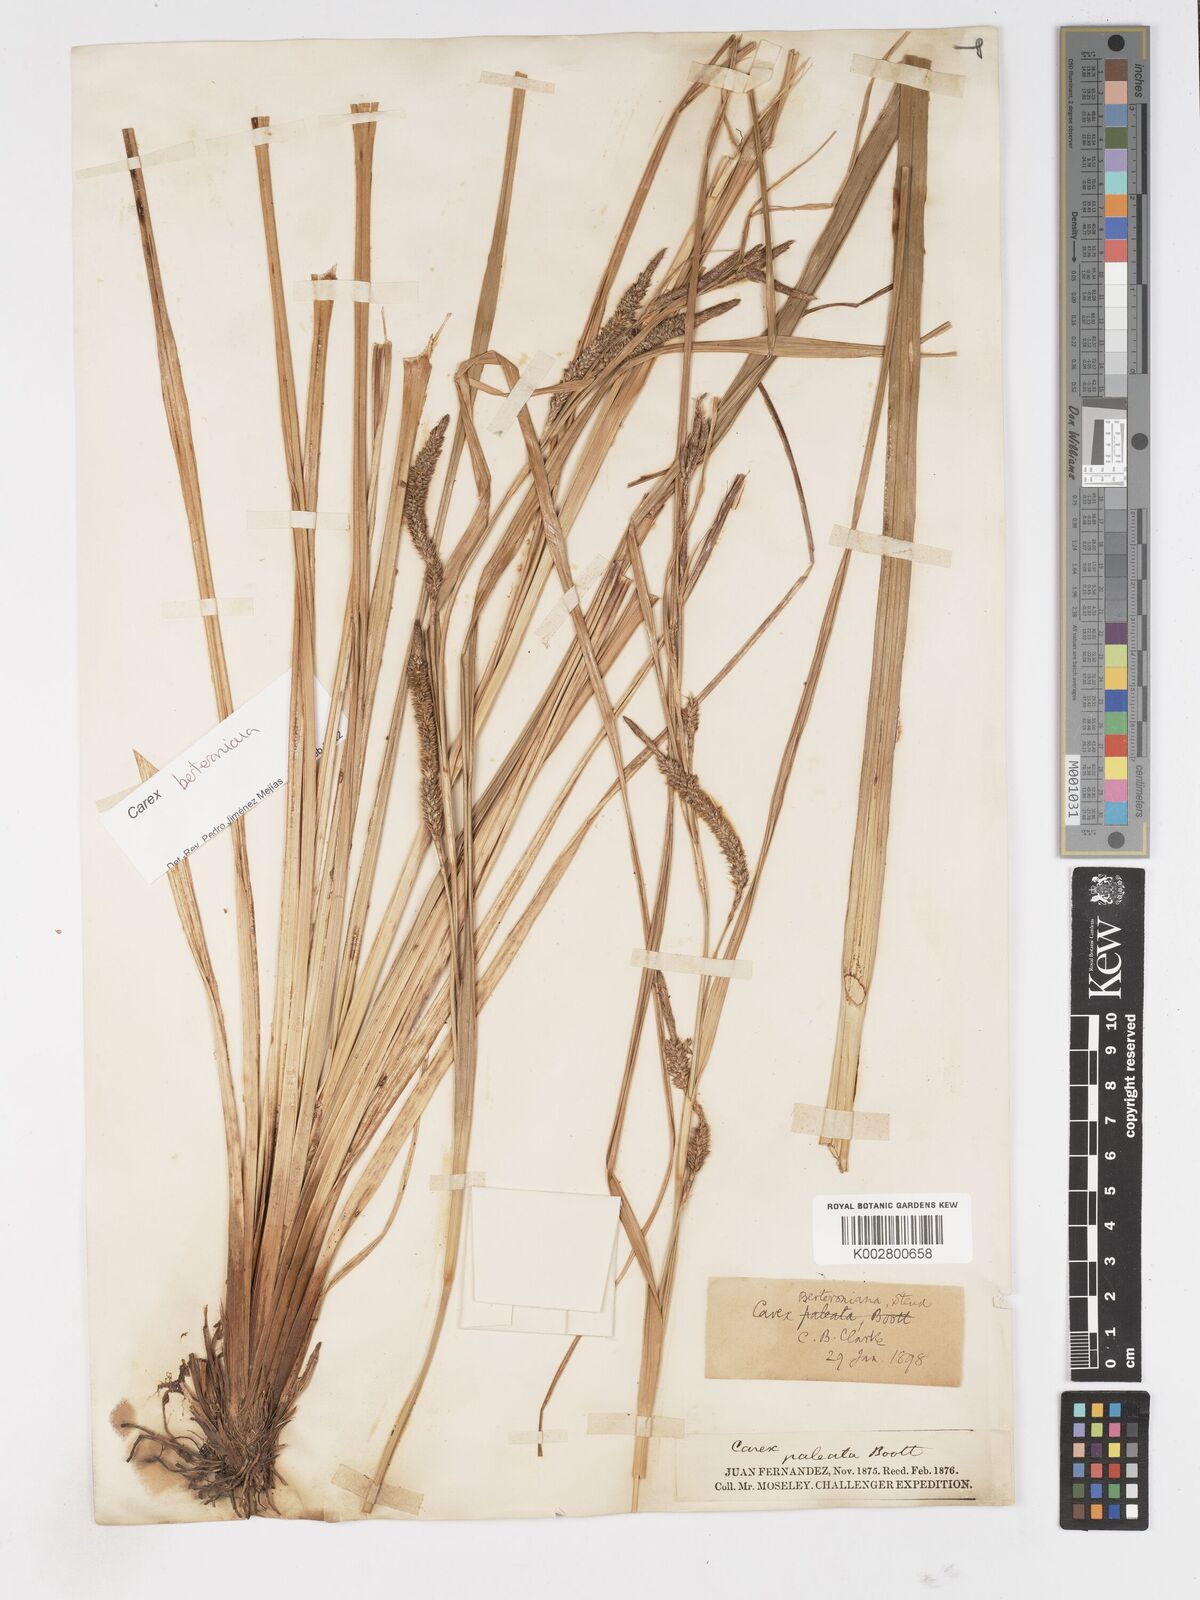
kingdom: Plantae
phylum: Tracheophyta
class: Liliopsida
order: Poales
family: Cyperaceae
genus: Carex
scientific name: Carex berteroniana
